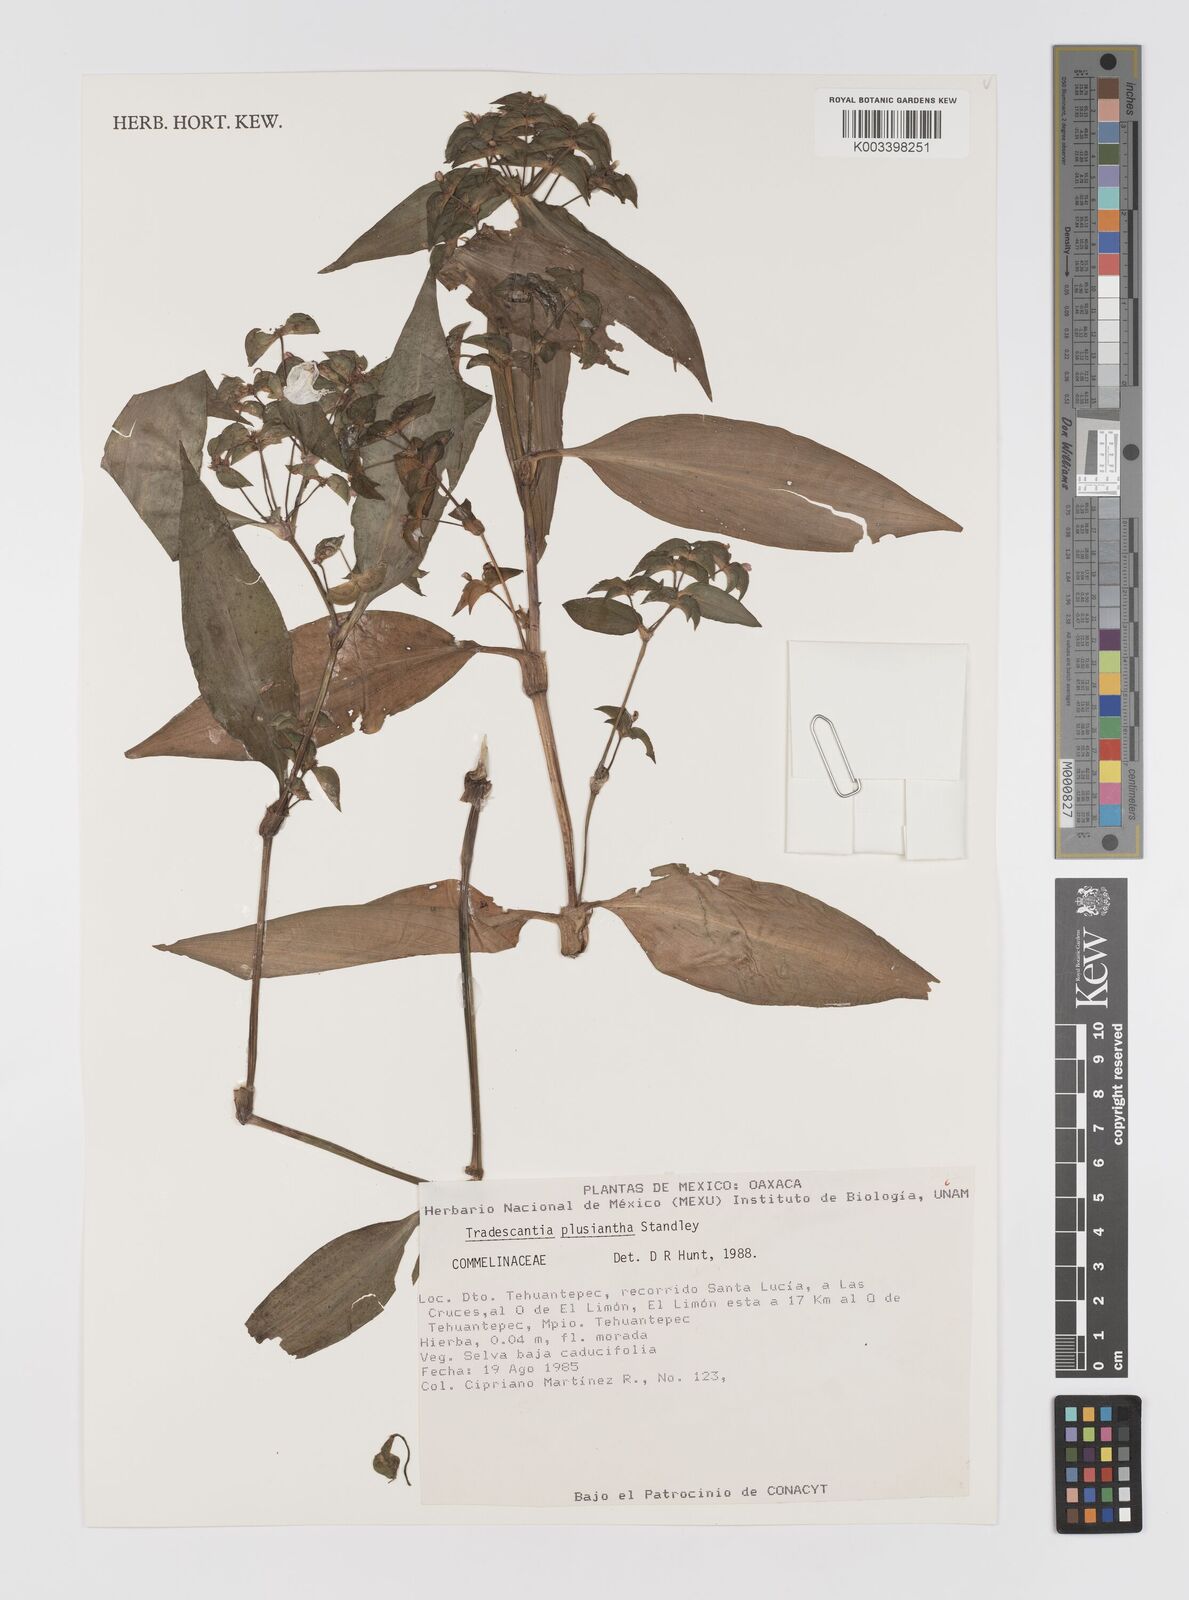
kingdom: Plantae
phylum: Tracheophyta
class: Liliopsida
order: Commelinales
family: Commelinaceae
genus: Tradescantia
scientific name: Tradescantia plusiantha
